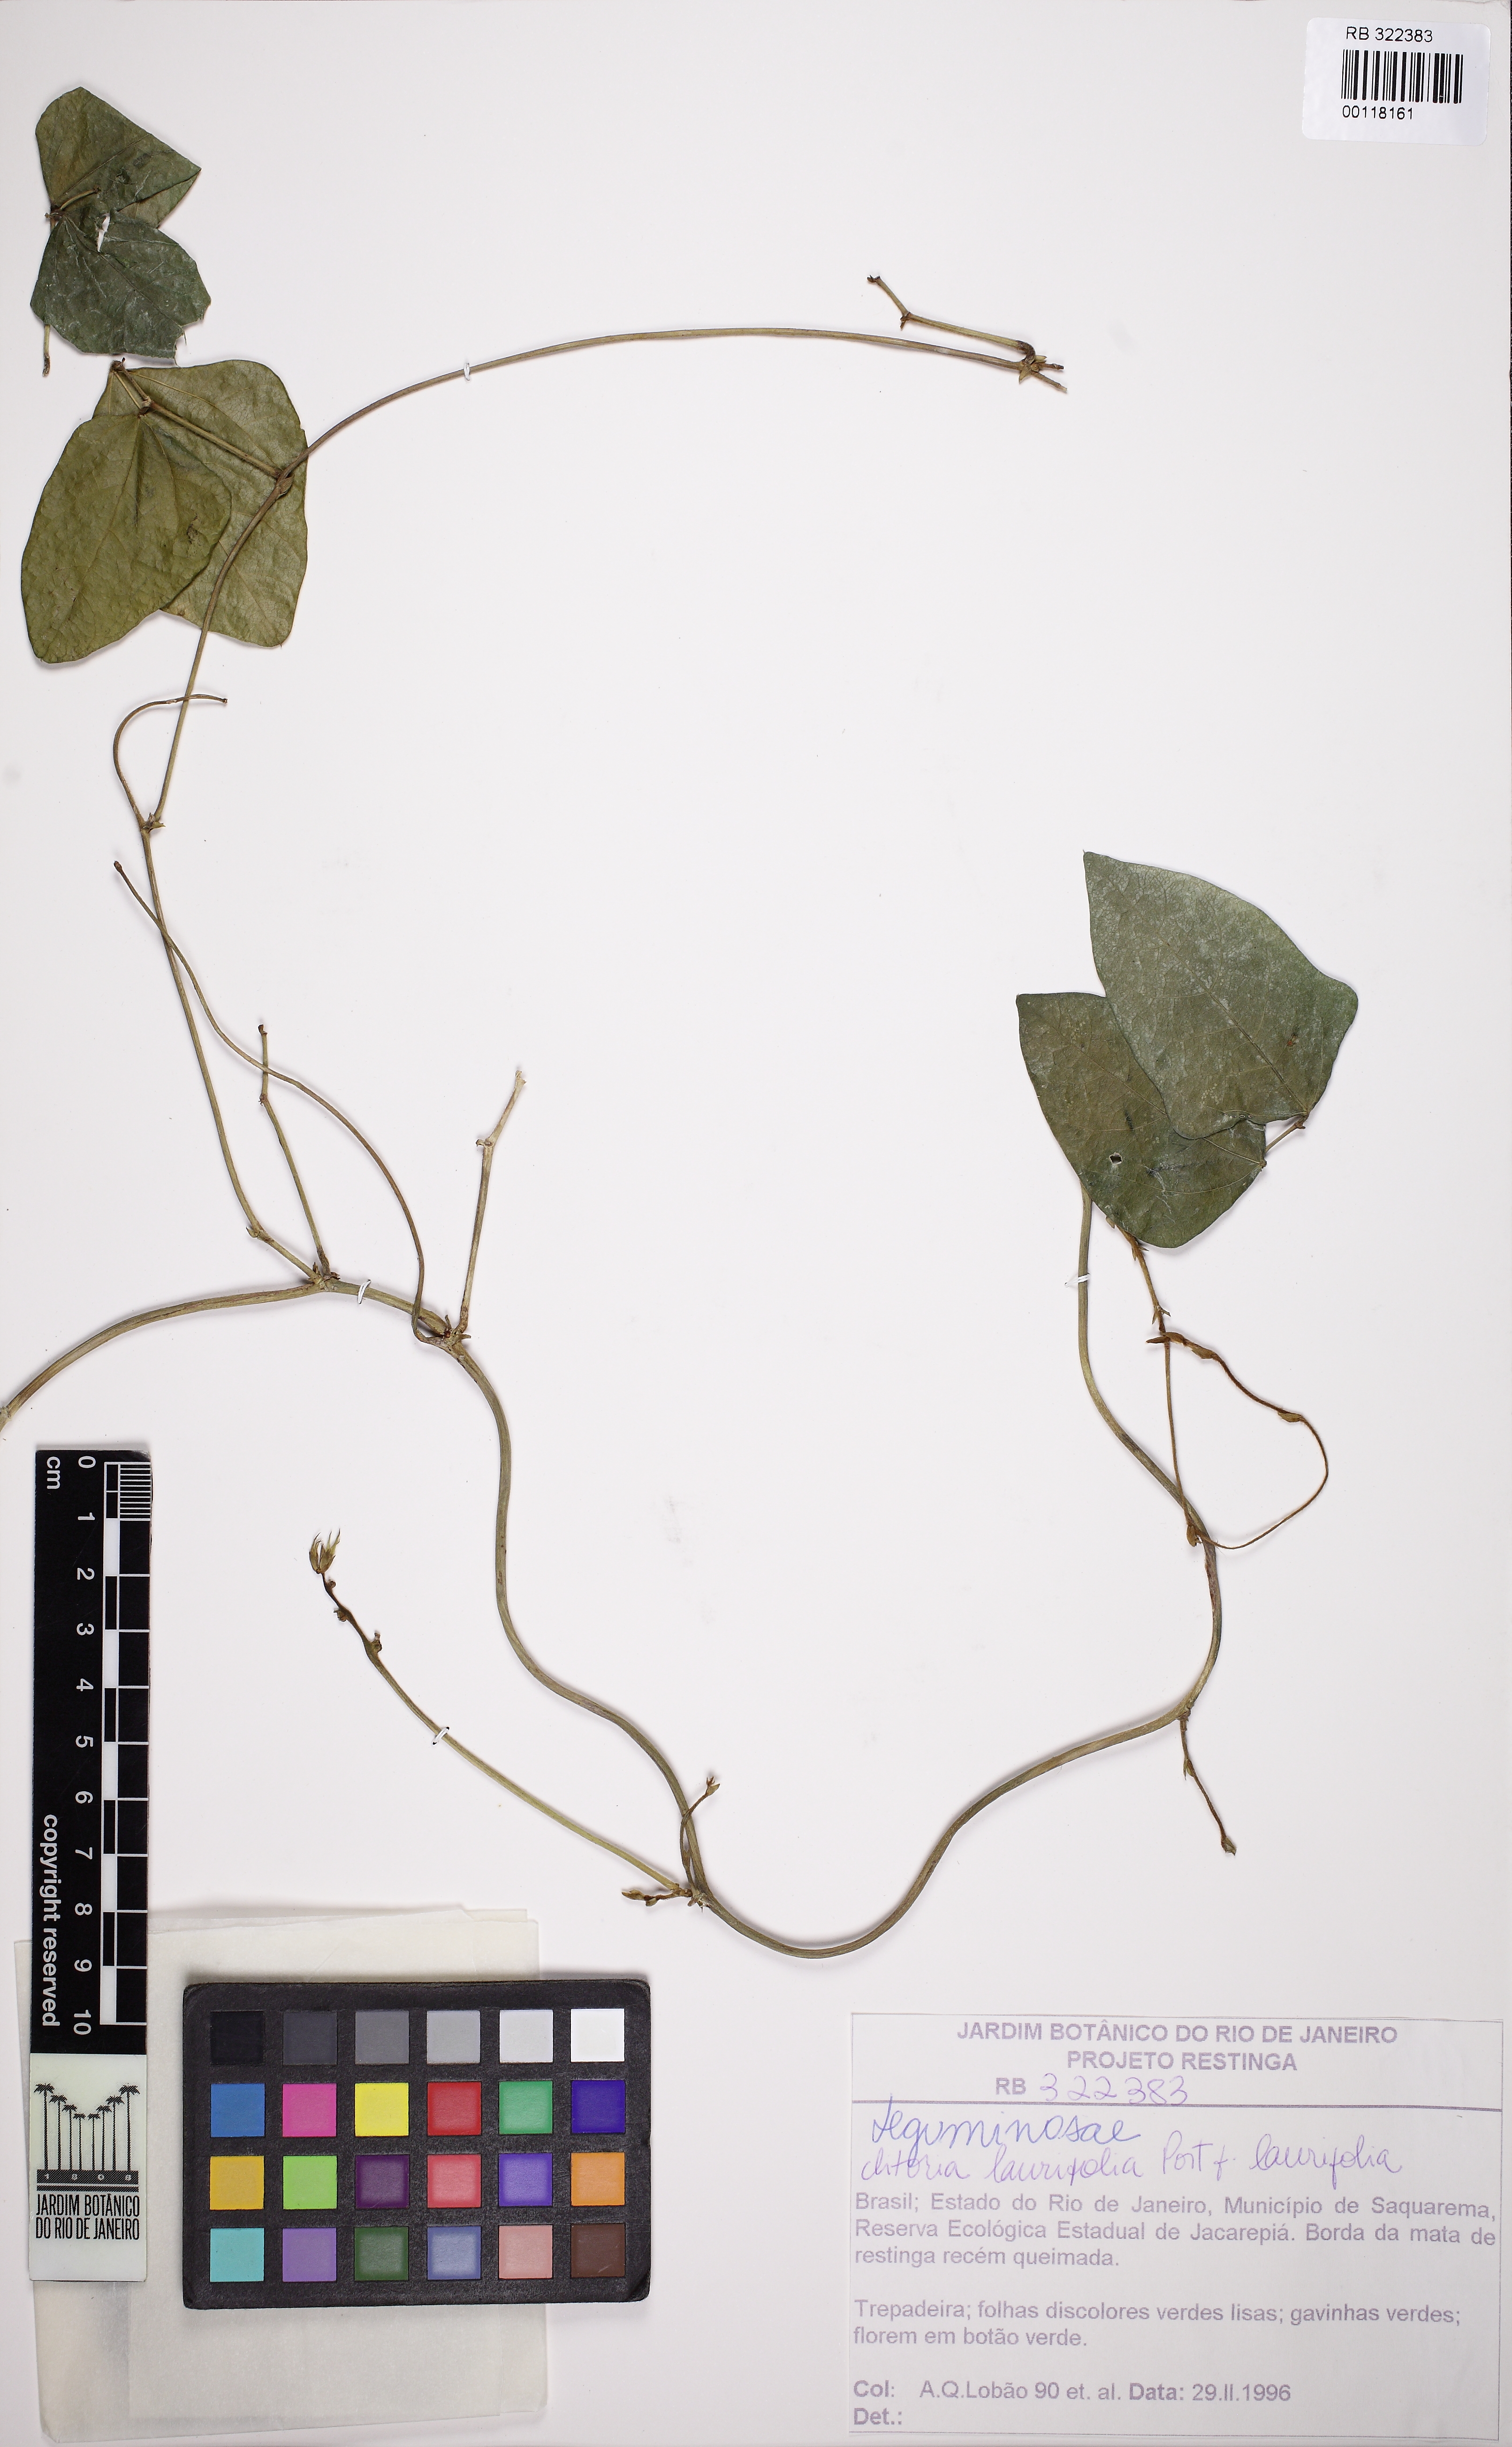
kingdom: Plantae
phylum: Tracheophyta
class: Magnoliopsida
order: Fabales
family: Fabaceae
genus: Clitoria
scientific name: Clitoria laurifolia
